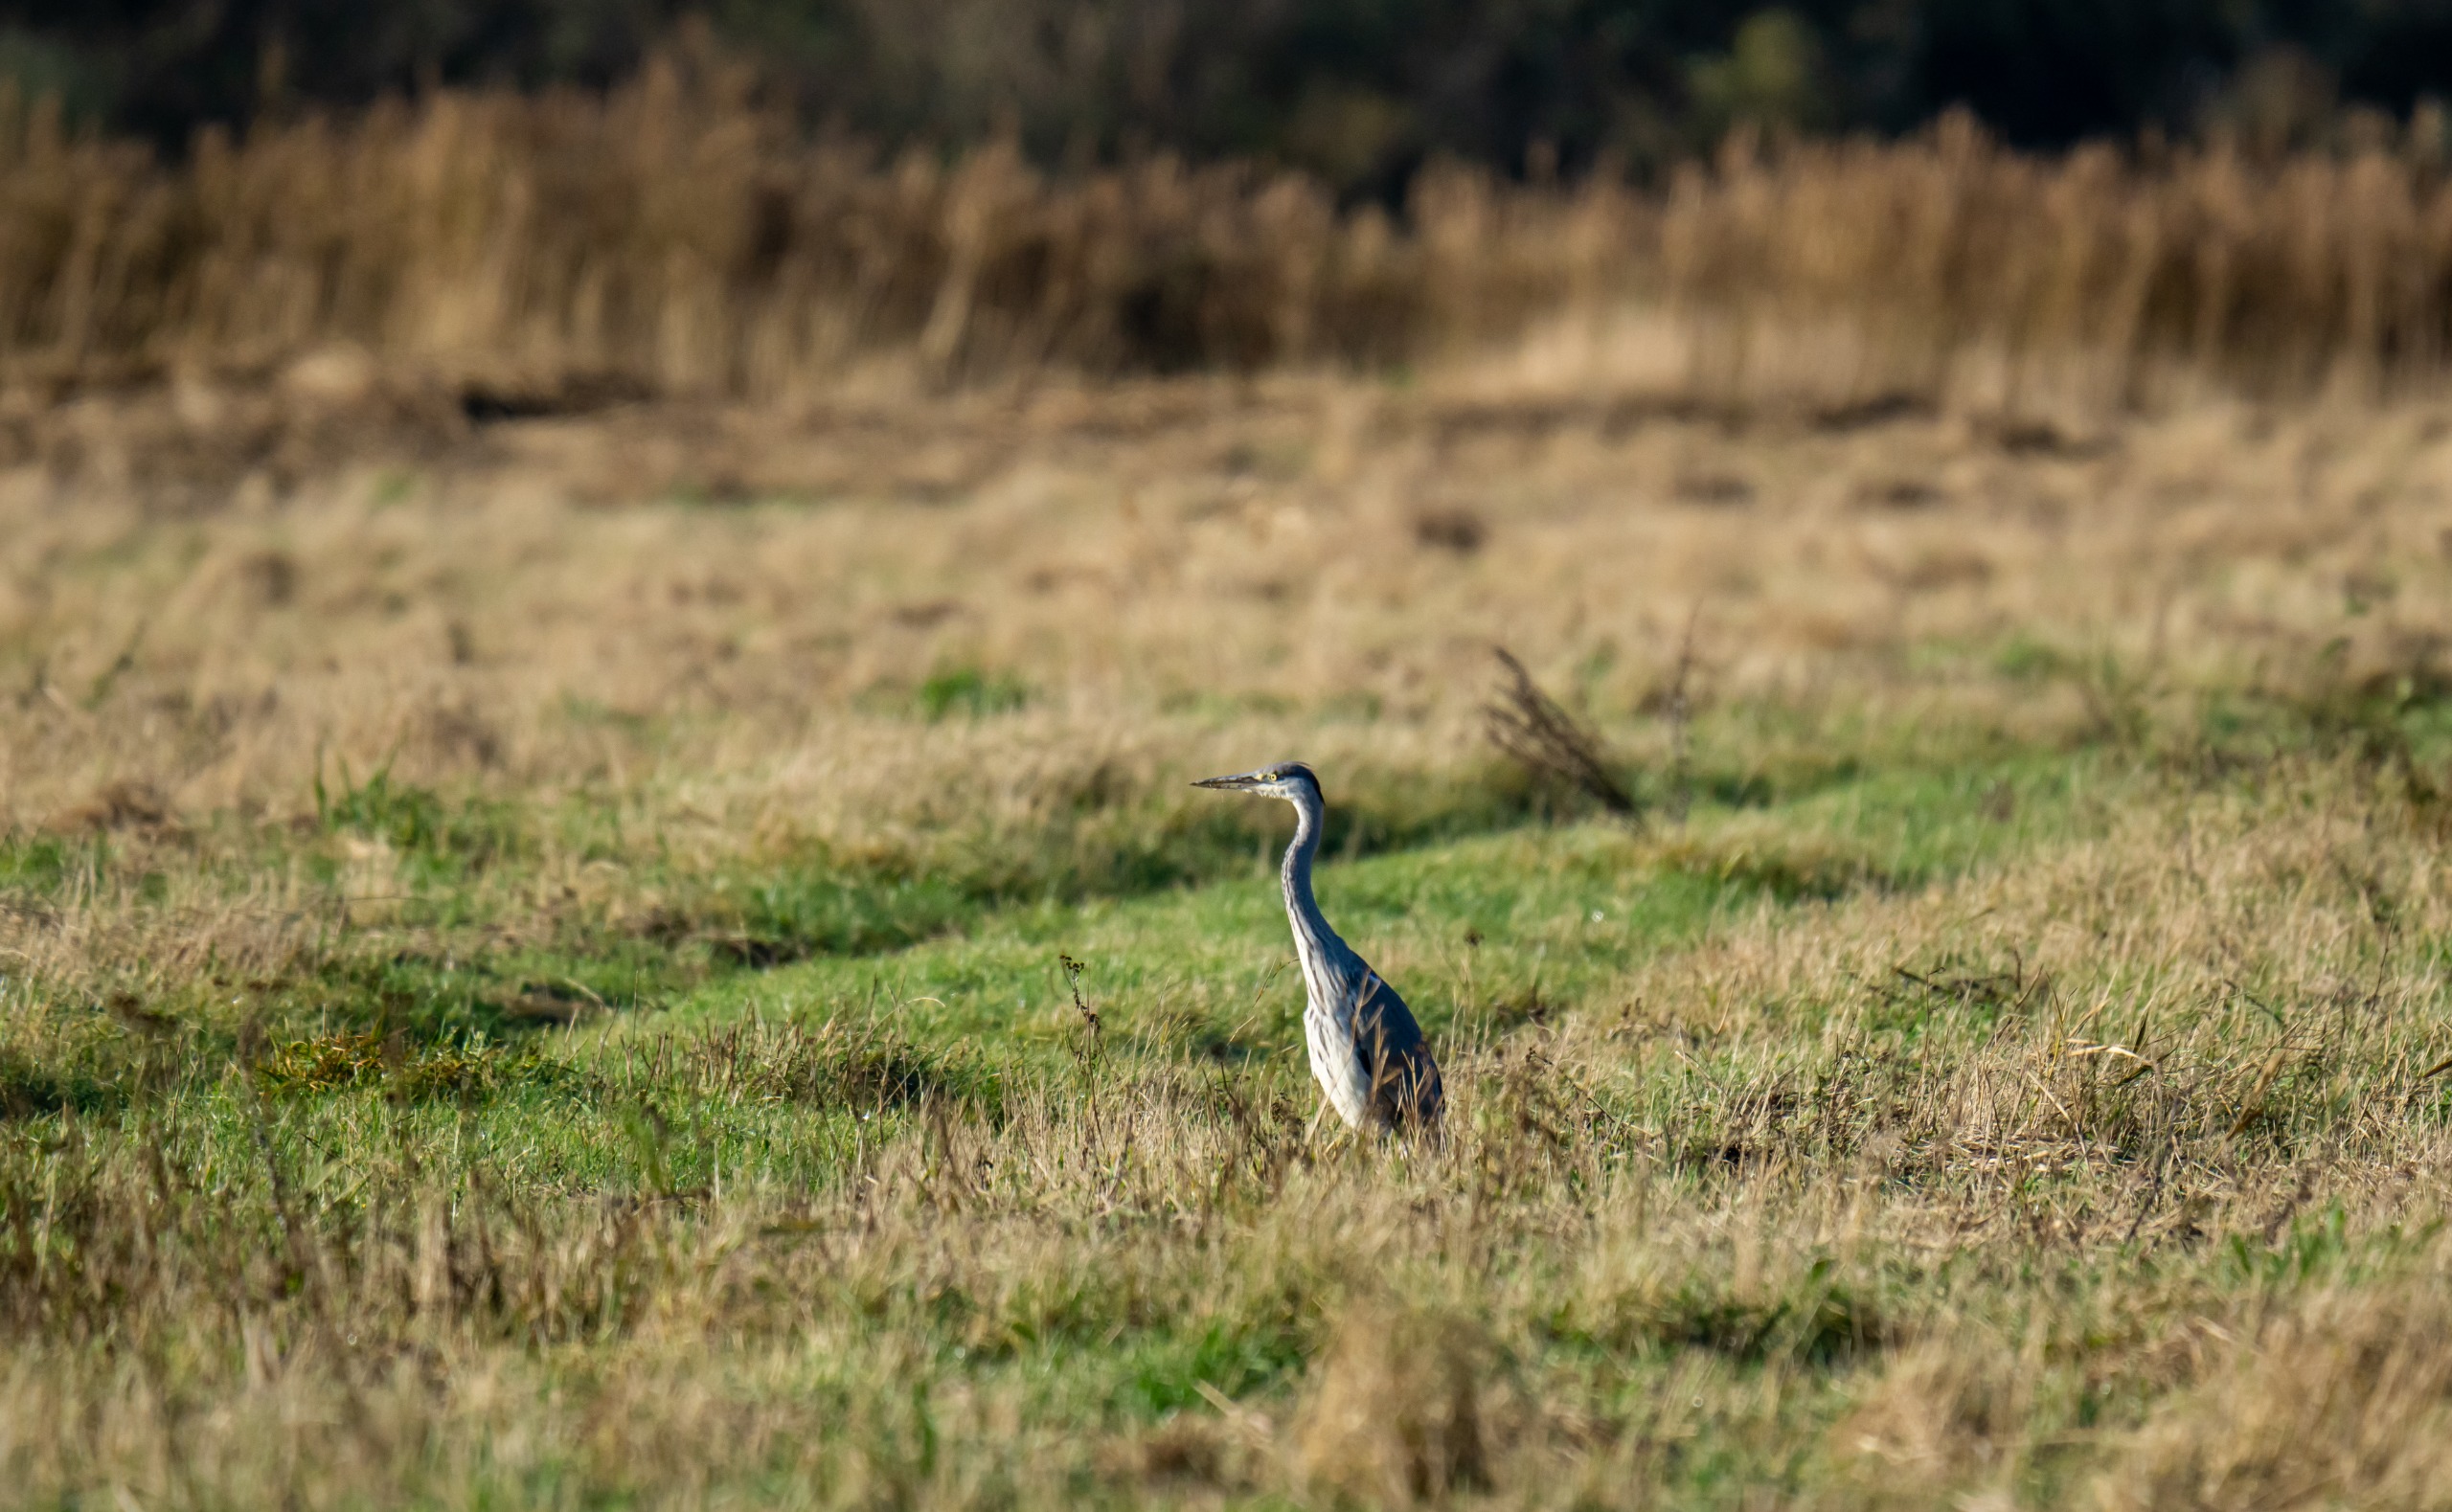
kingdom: Animalia
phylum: Chordata
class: Aves
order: Pelecaniformes
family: Ardeidae
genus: Ardea
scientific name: Ardea cinerea
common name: Fiskehejre
